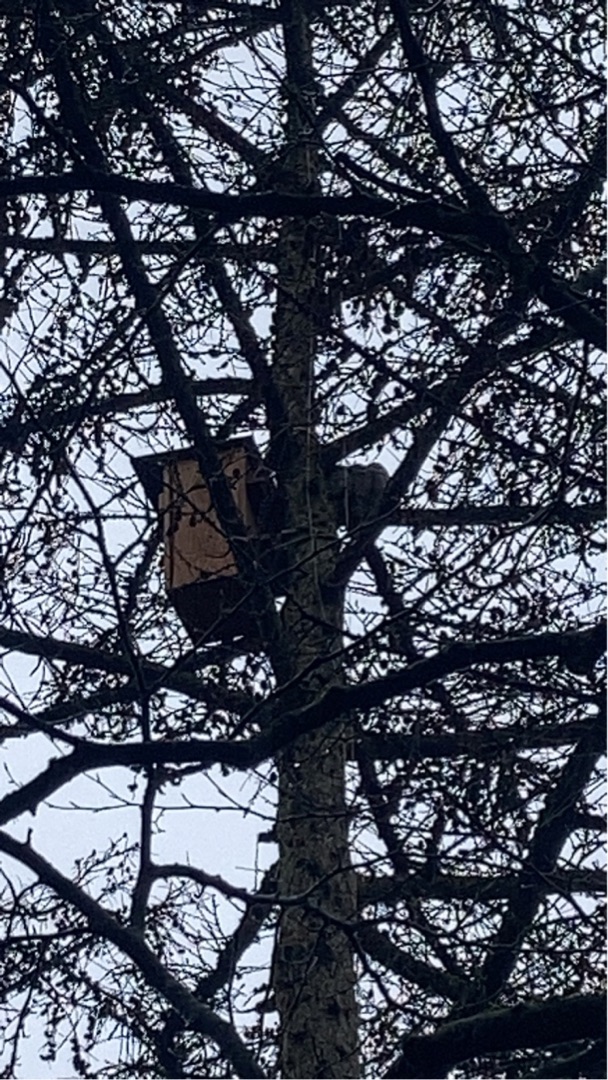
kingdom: Animalia
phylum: Chordata
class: Aves
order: Strigiformes
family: Strigidae
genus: Strix
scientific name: Strix aluco
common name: Natugle
